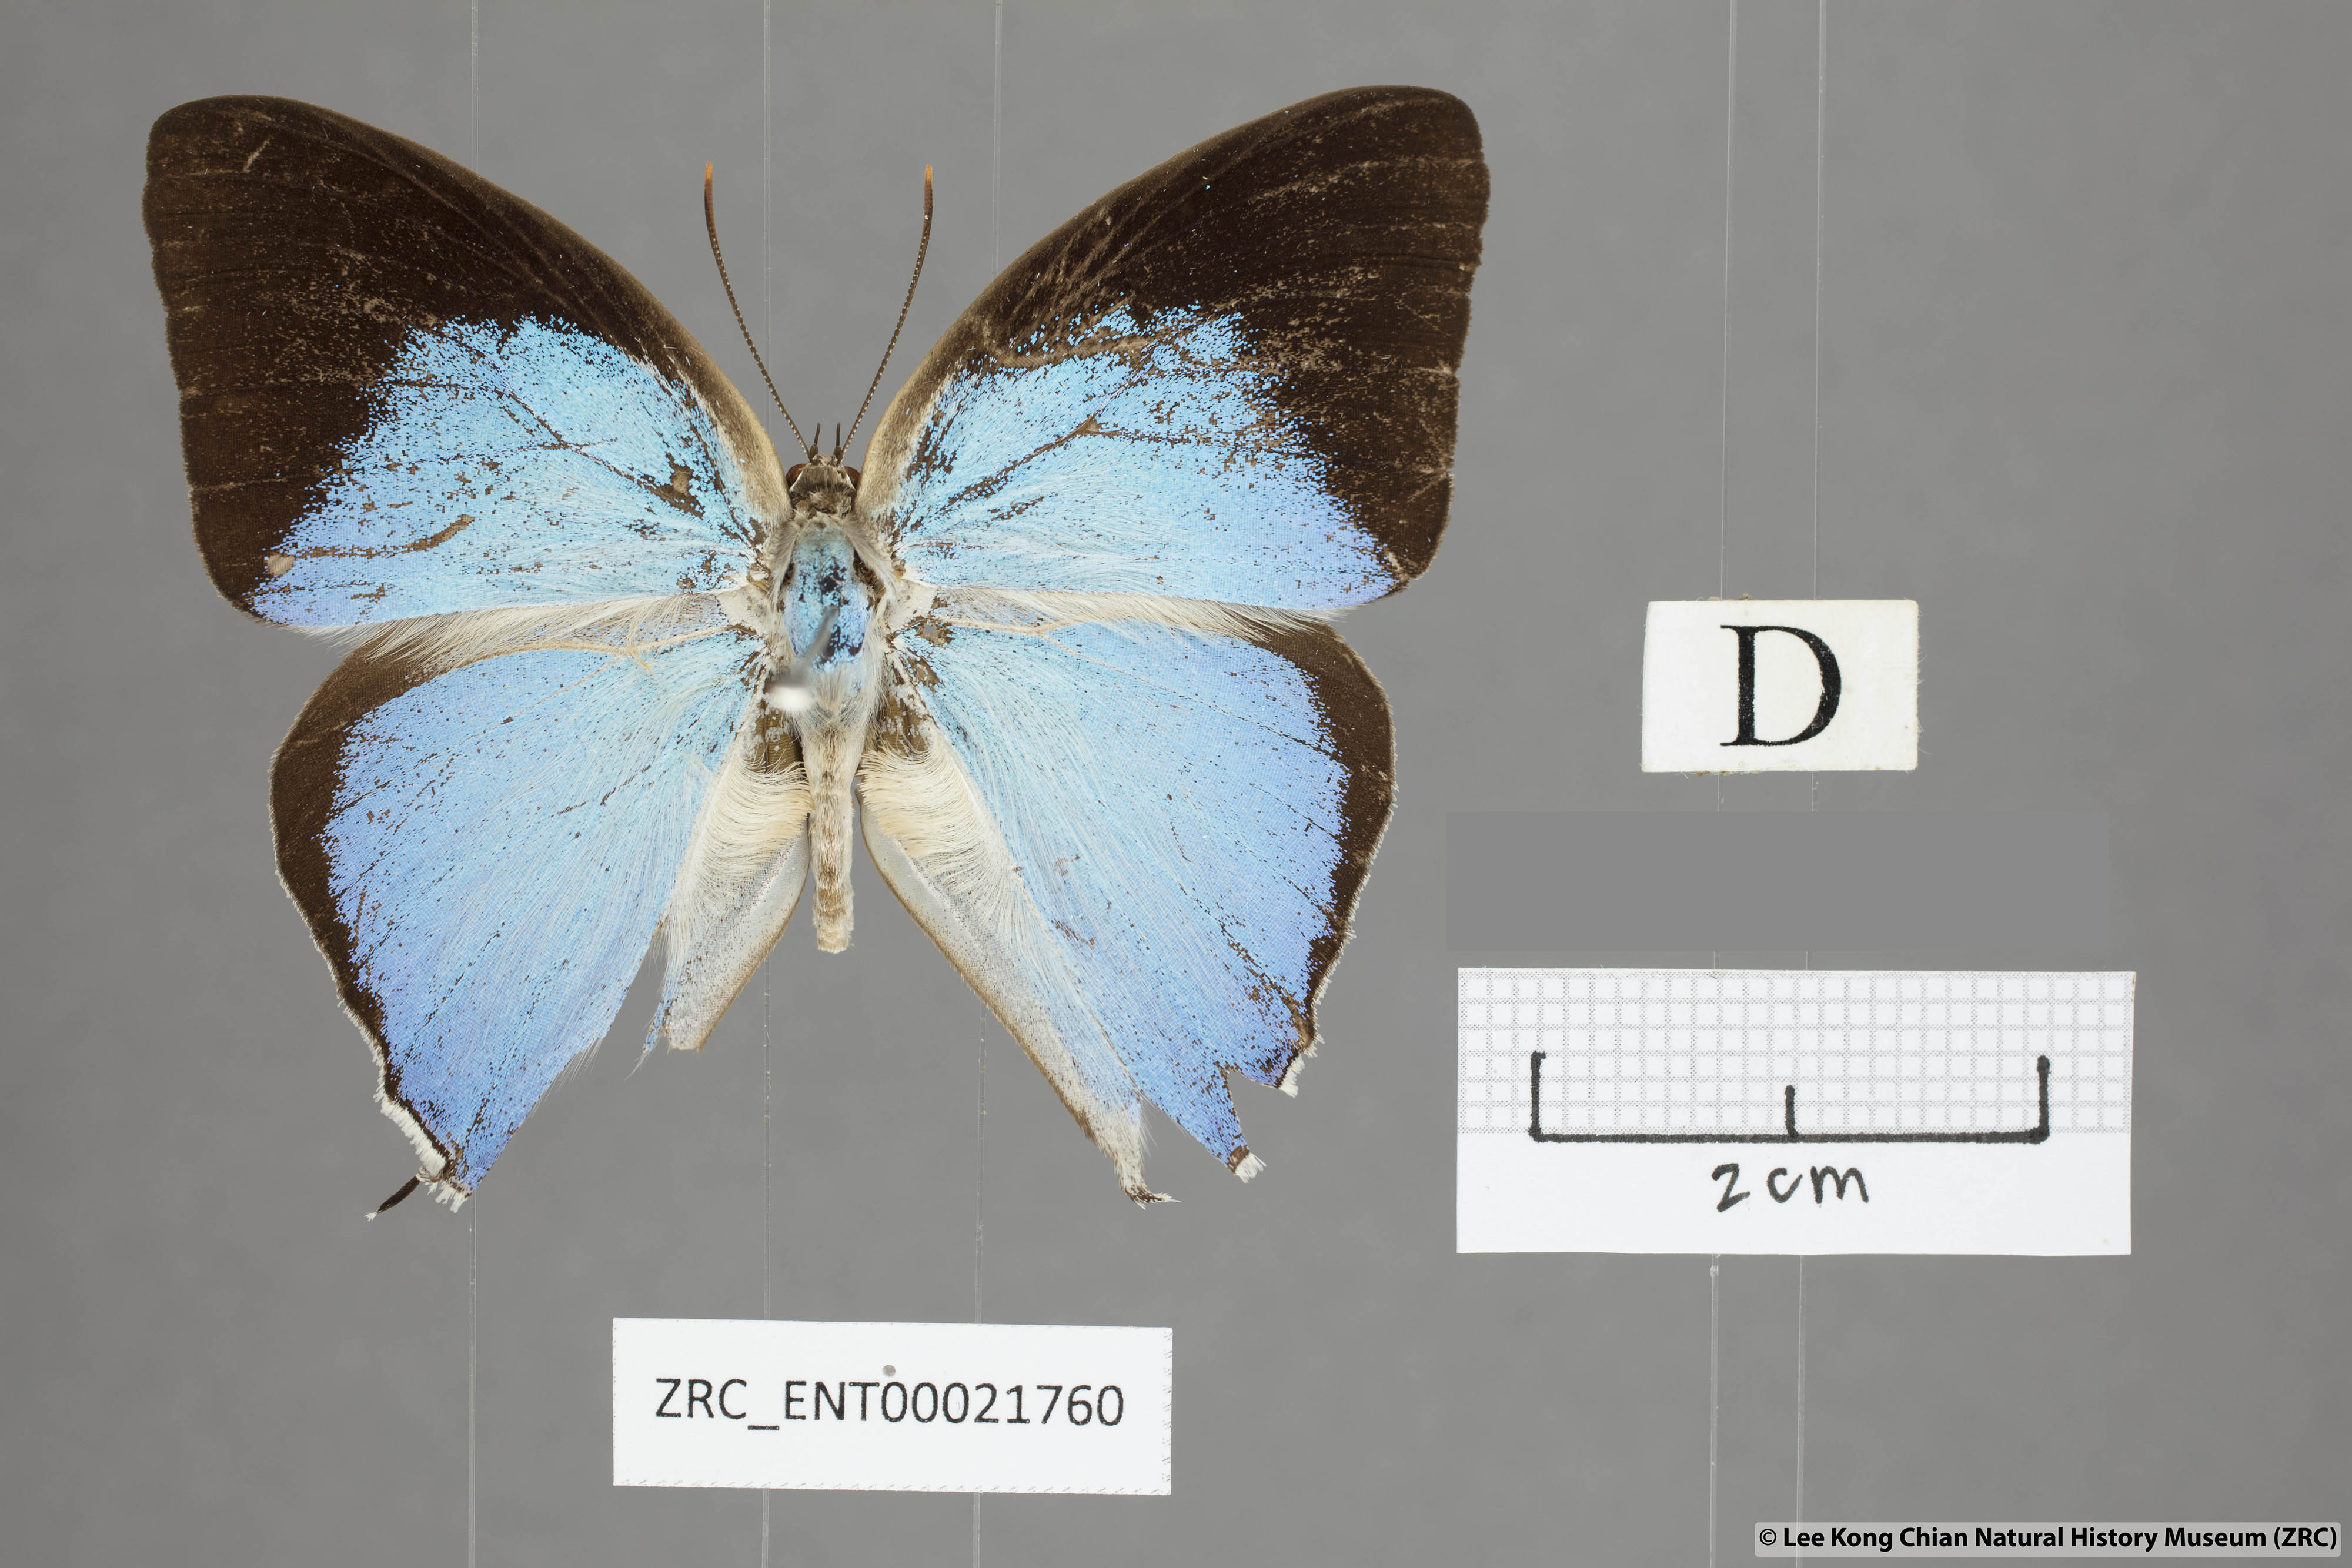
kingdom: Animalia
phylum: Arthropoda
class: Insecta
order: Lepidoptera
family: Lycaenidae
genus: Purlisa
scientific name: Purlisa giganteus
